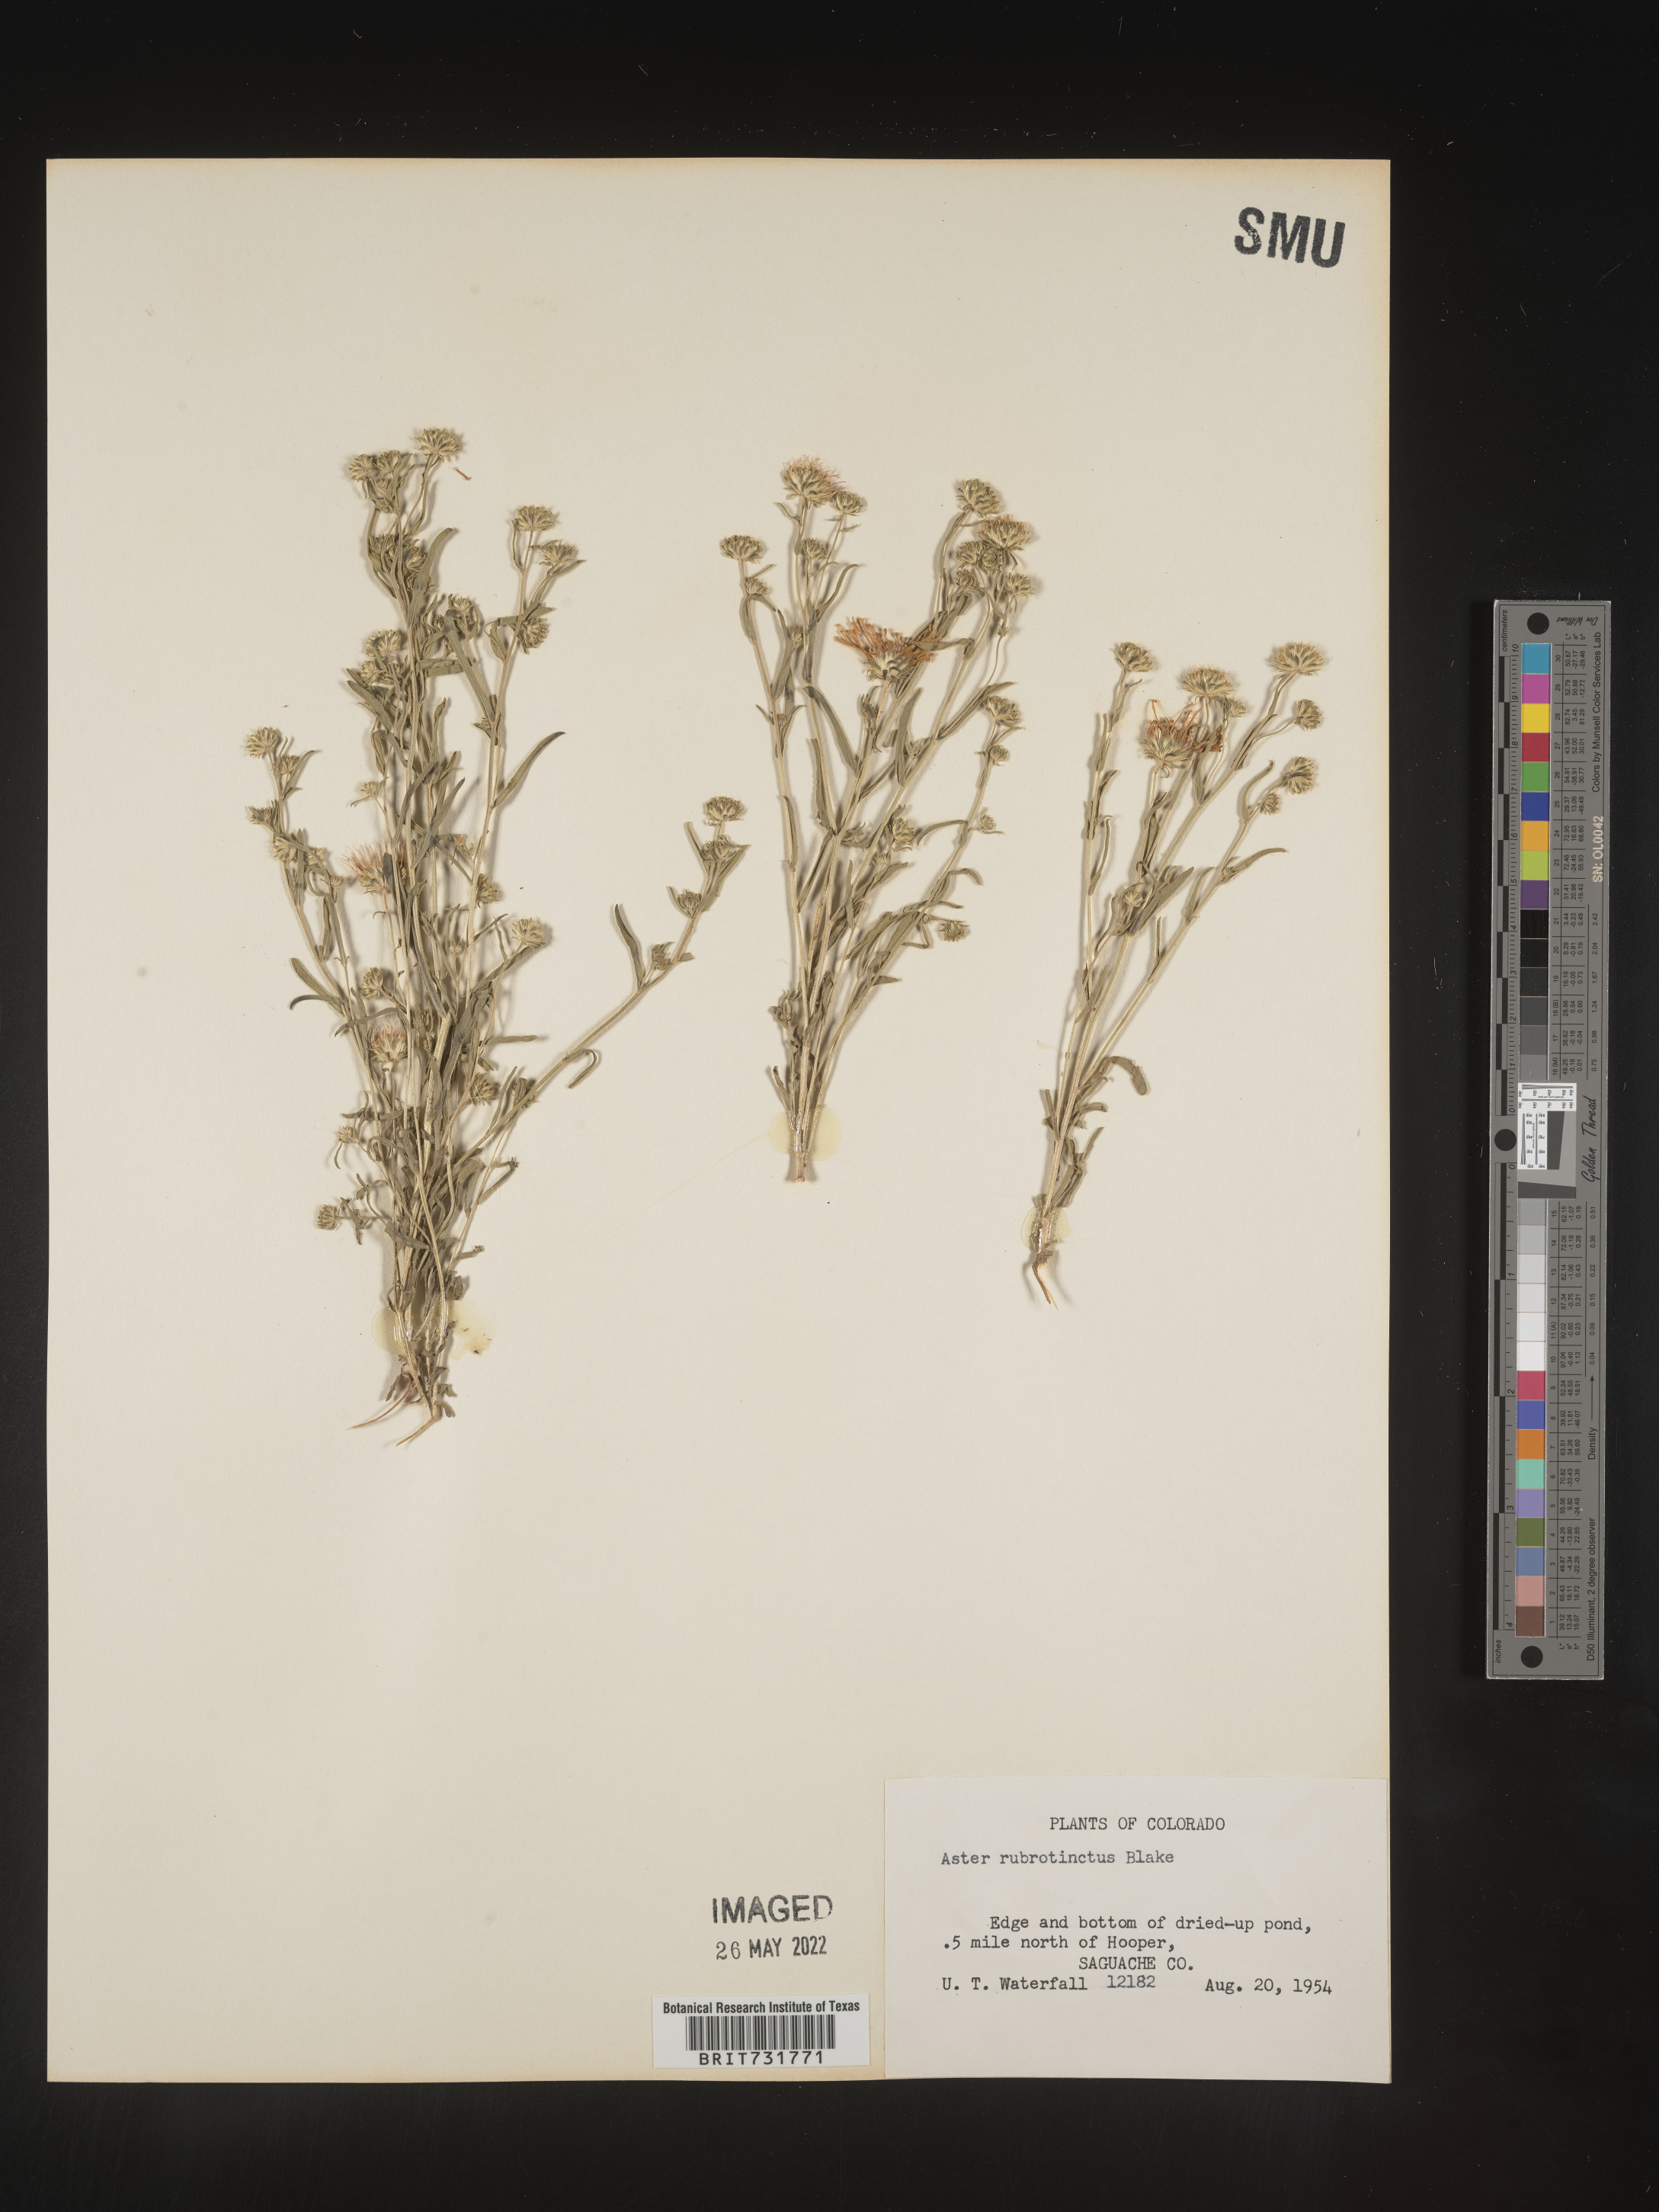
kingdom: Plantae
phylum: Tracheophyta
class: Magnoliopsida
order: Asterales
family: Asteraceae
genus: Machaeranthera
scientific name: Machaeranthera
